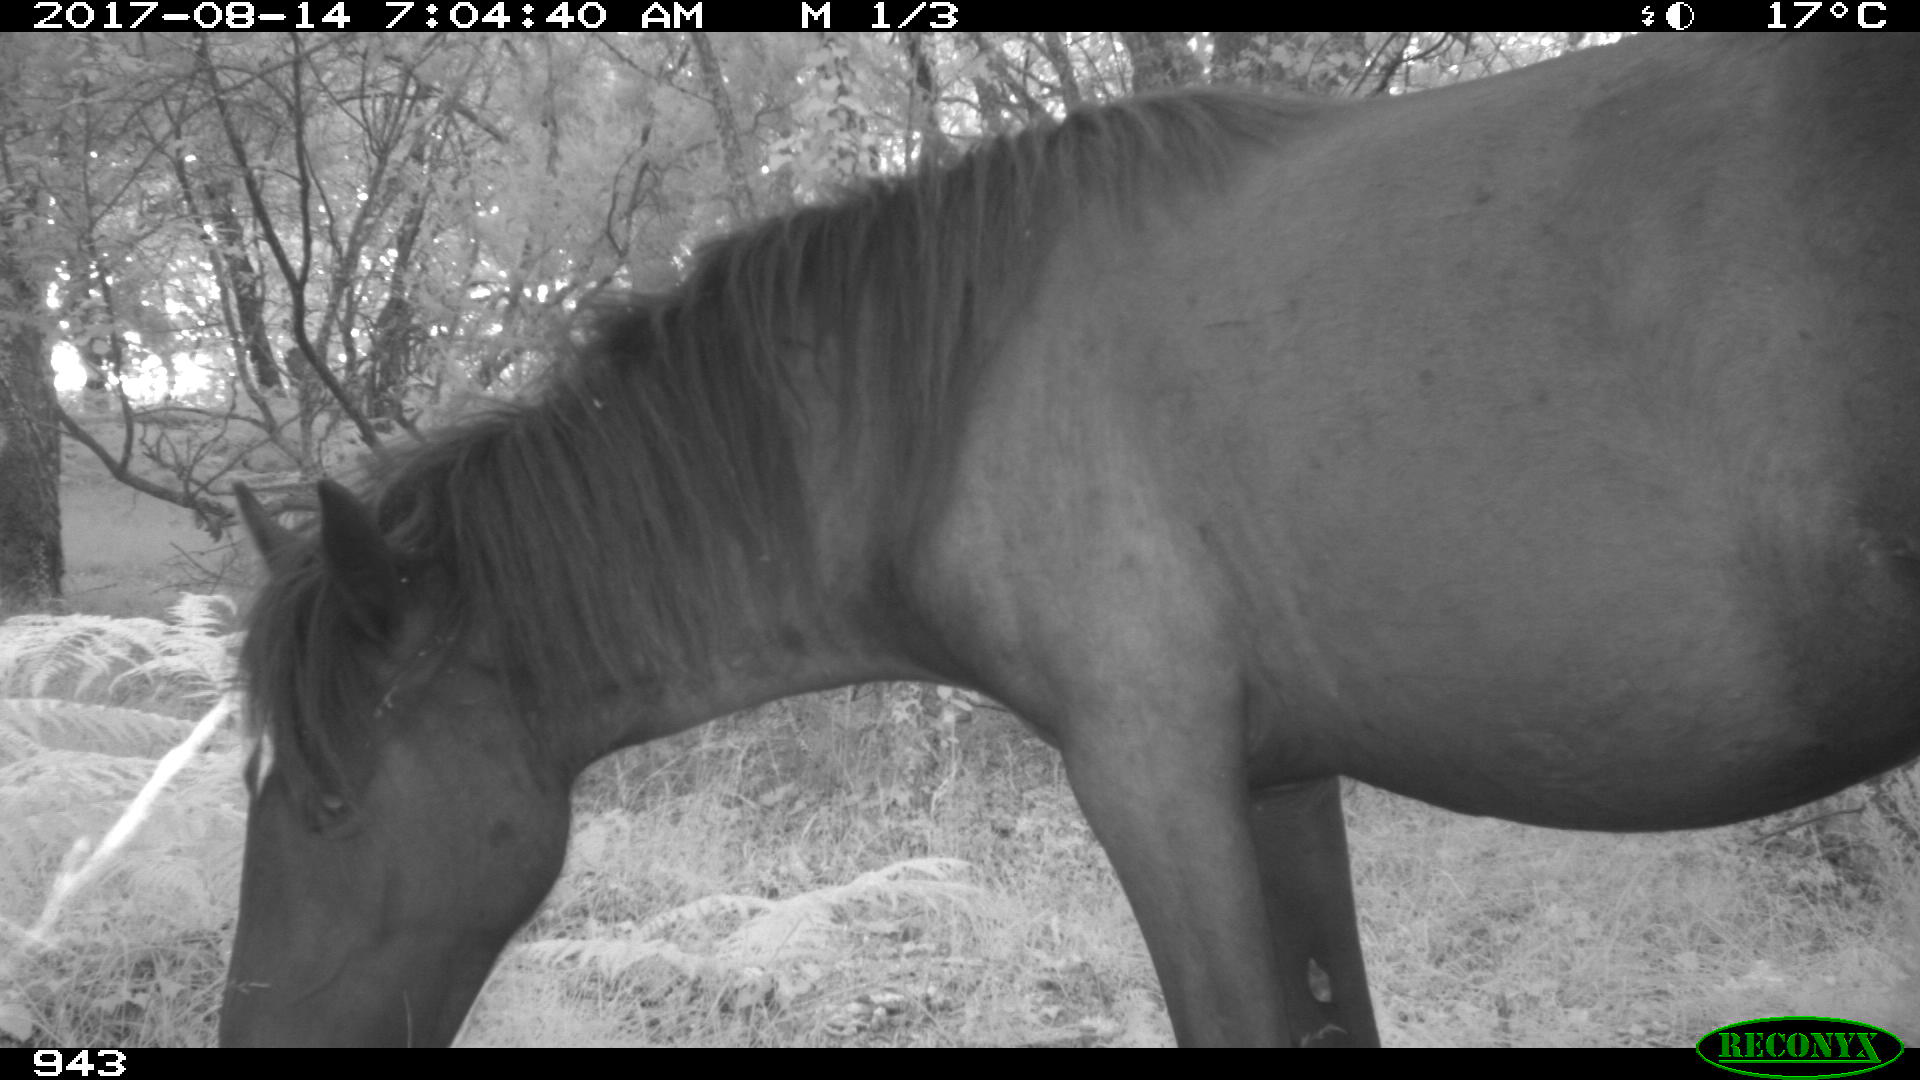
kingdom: Animalia
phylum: Chordata
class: Mammalia
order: Perissodactyla
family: Equidae
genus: Equus
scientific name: Equus caballus
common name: Horse
